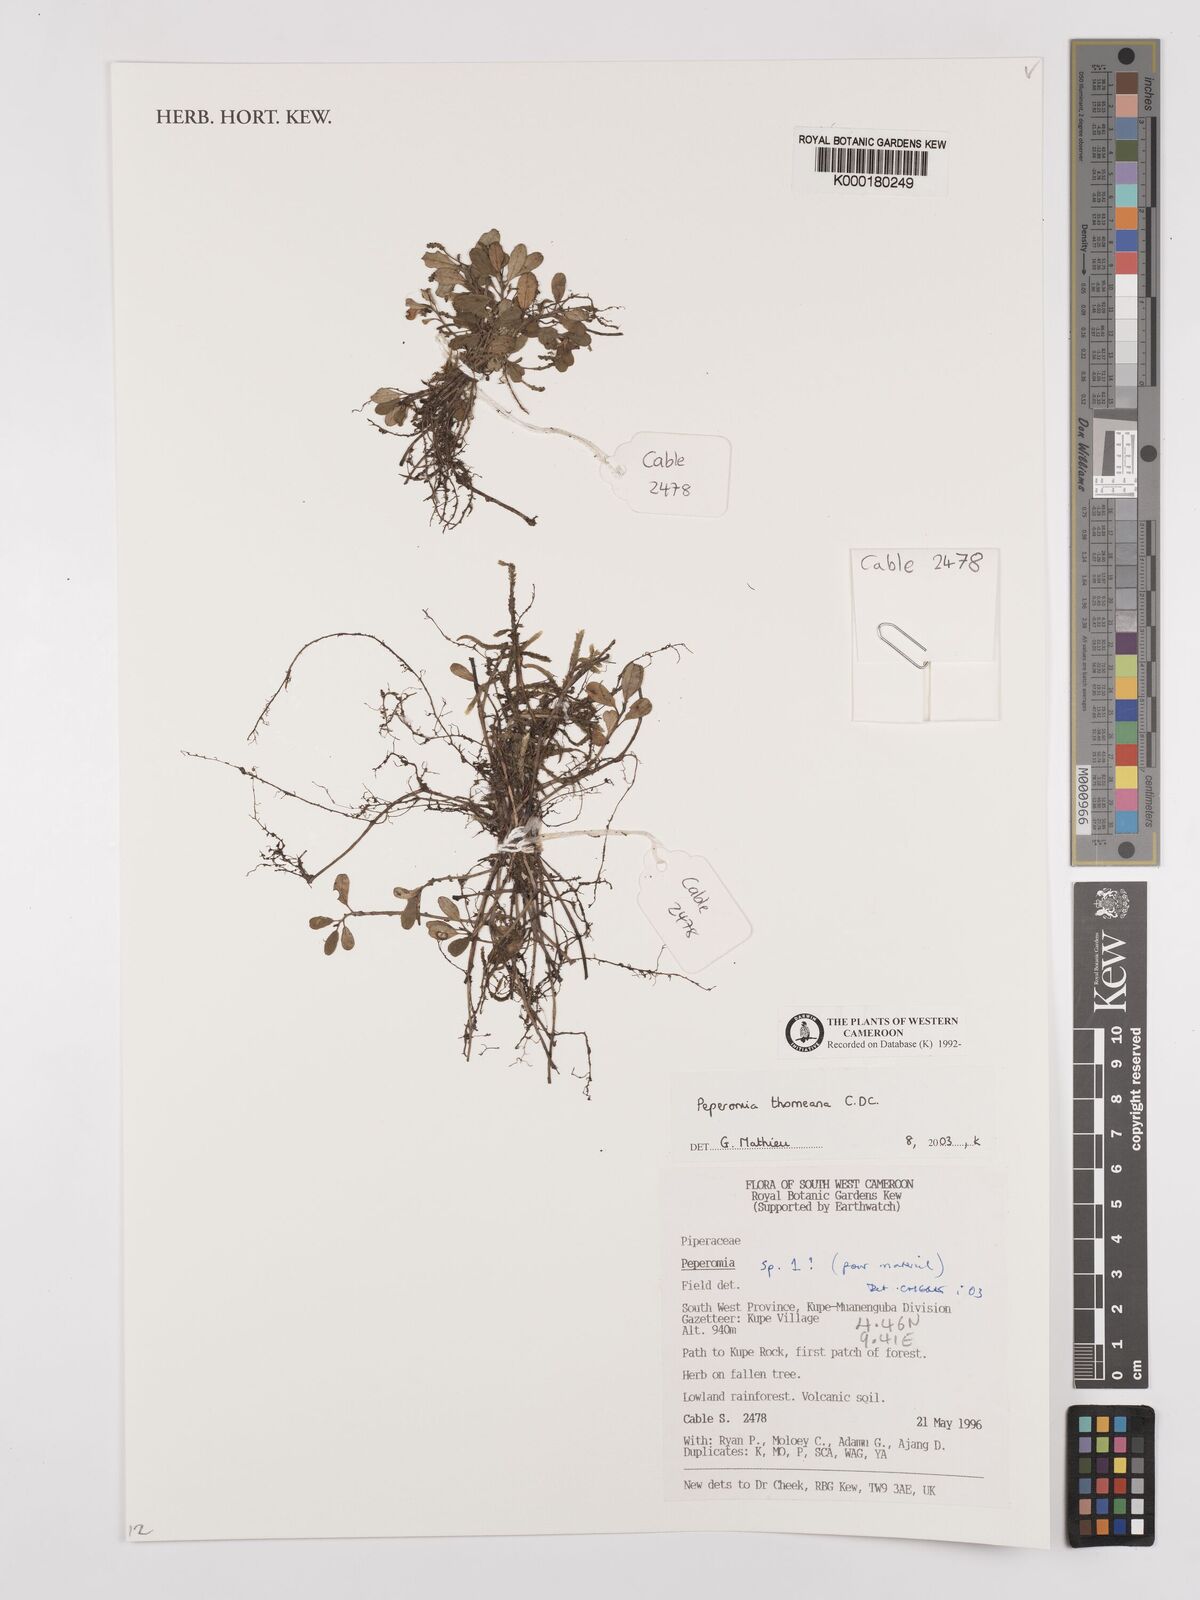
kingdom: Plantae
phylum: Tracheophyta
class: Magnoliopsida
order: Piperales
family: Piperaceae
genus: Peperomia
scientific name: Peperomia thomeana
